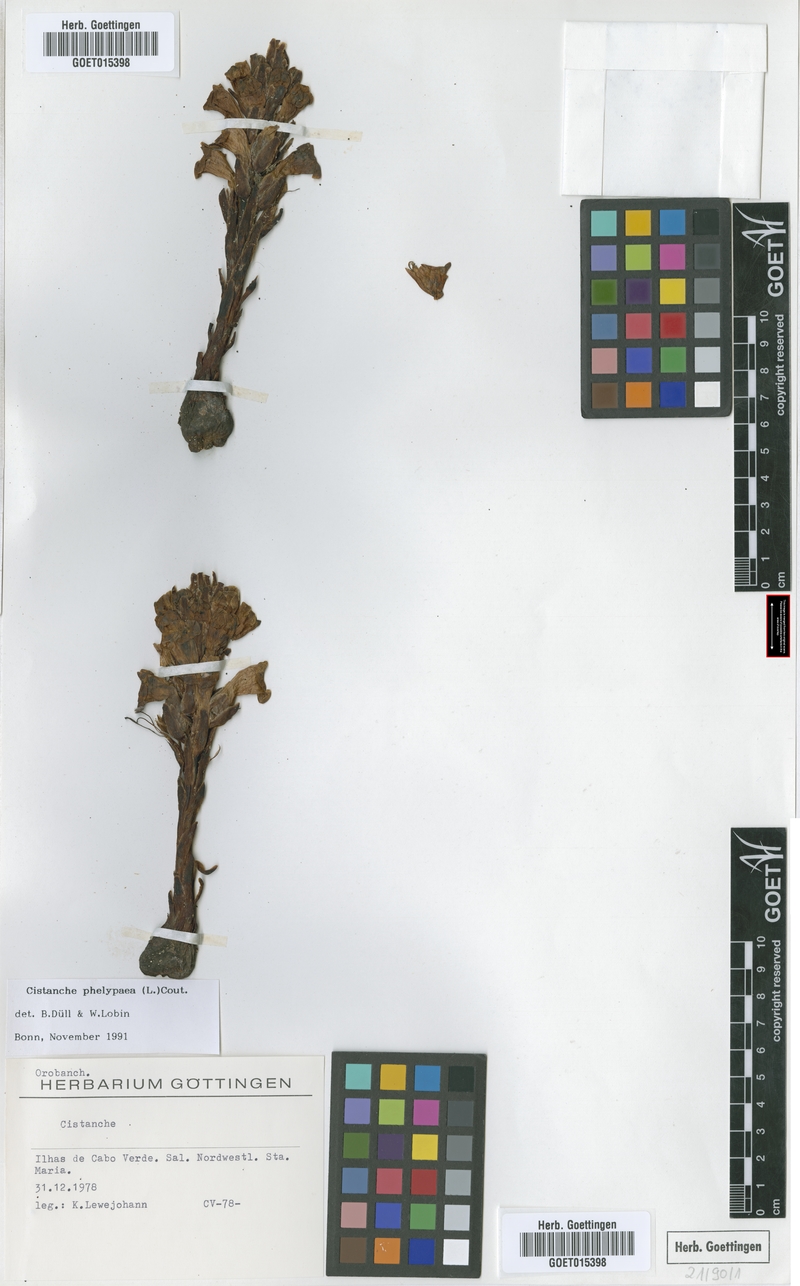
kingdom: Plantae
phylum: Tracheophyta
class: Magnoliopsida
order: Lamiales
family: Orobanchaceae
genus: Cistanche
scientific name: Cistanche phelypaea
